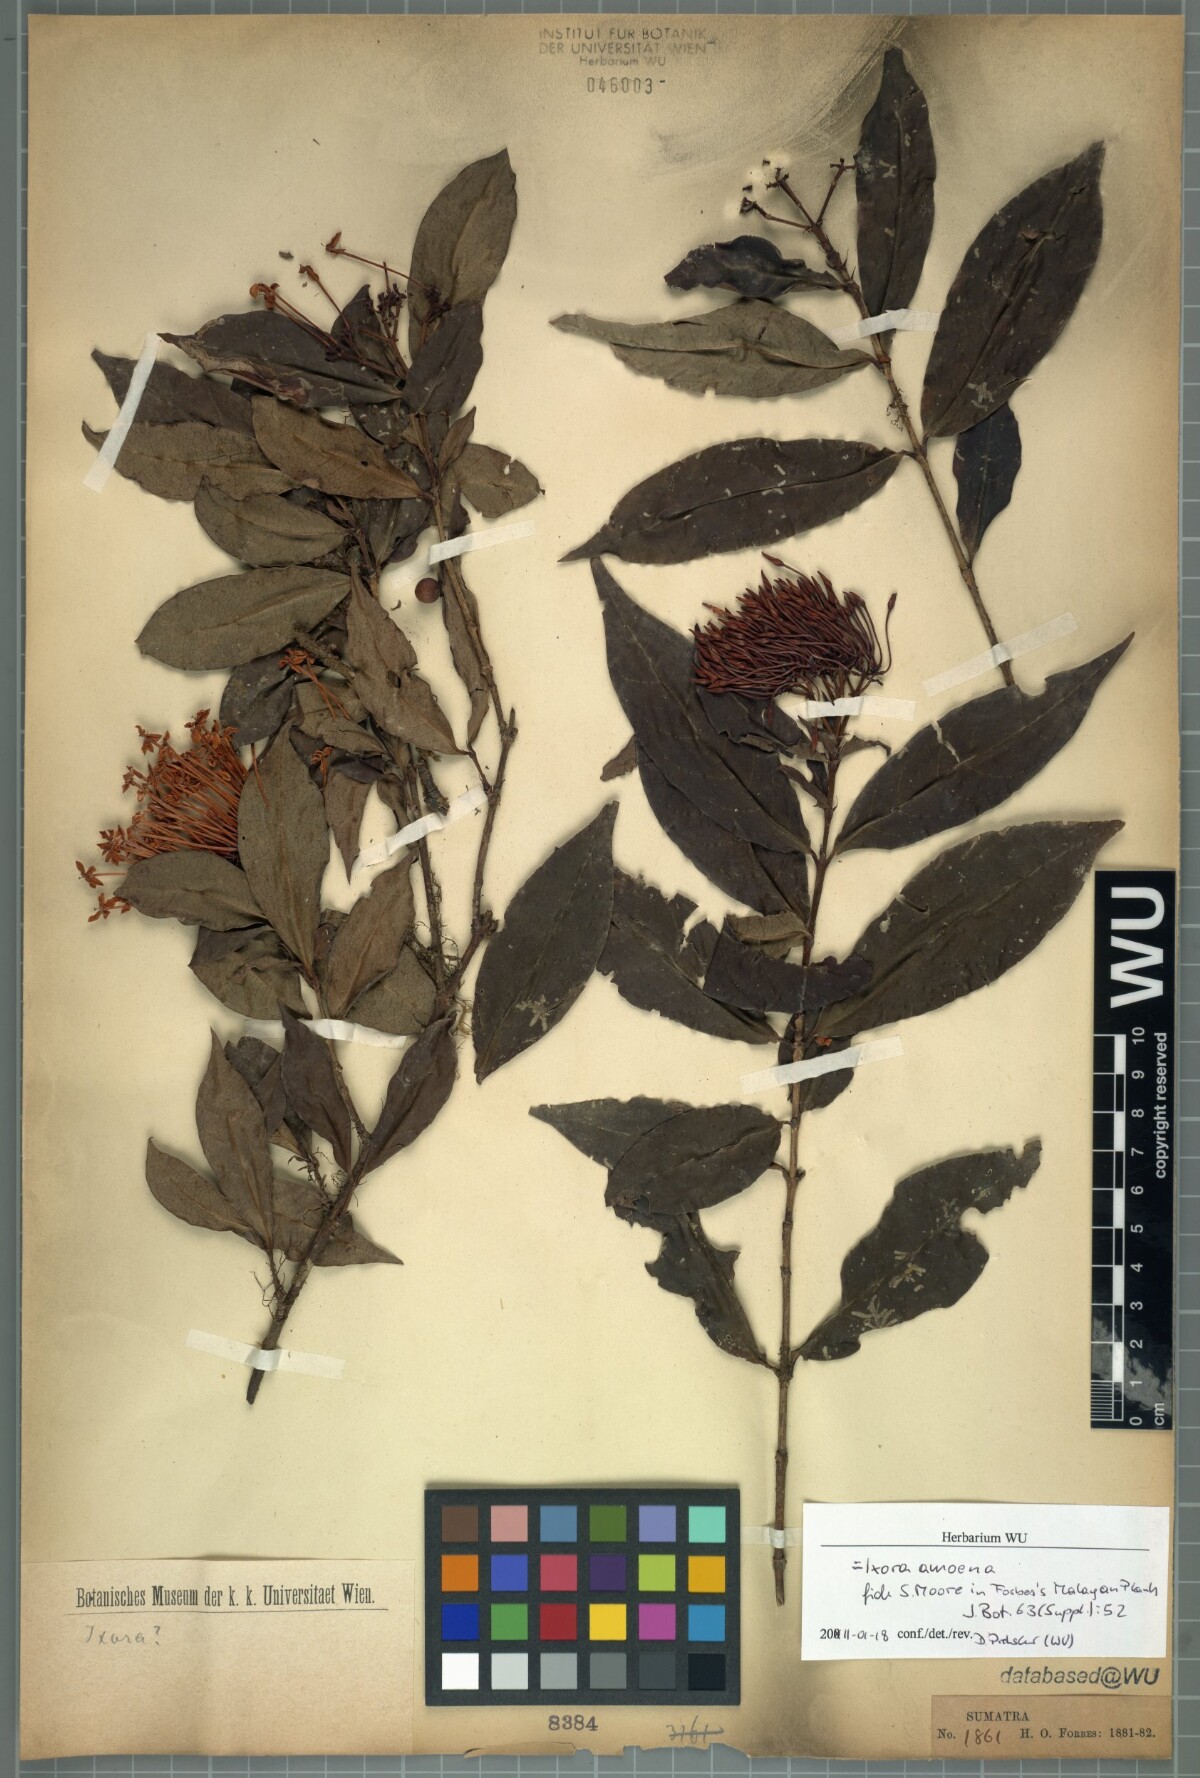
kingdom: Plantae
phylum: Tracheophyta
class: Magnoliopsida
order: Gentianales
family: Rubiaceae
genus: Ixora
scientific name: Ixora javanica
